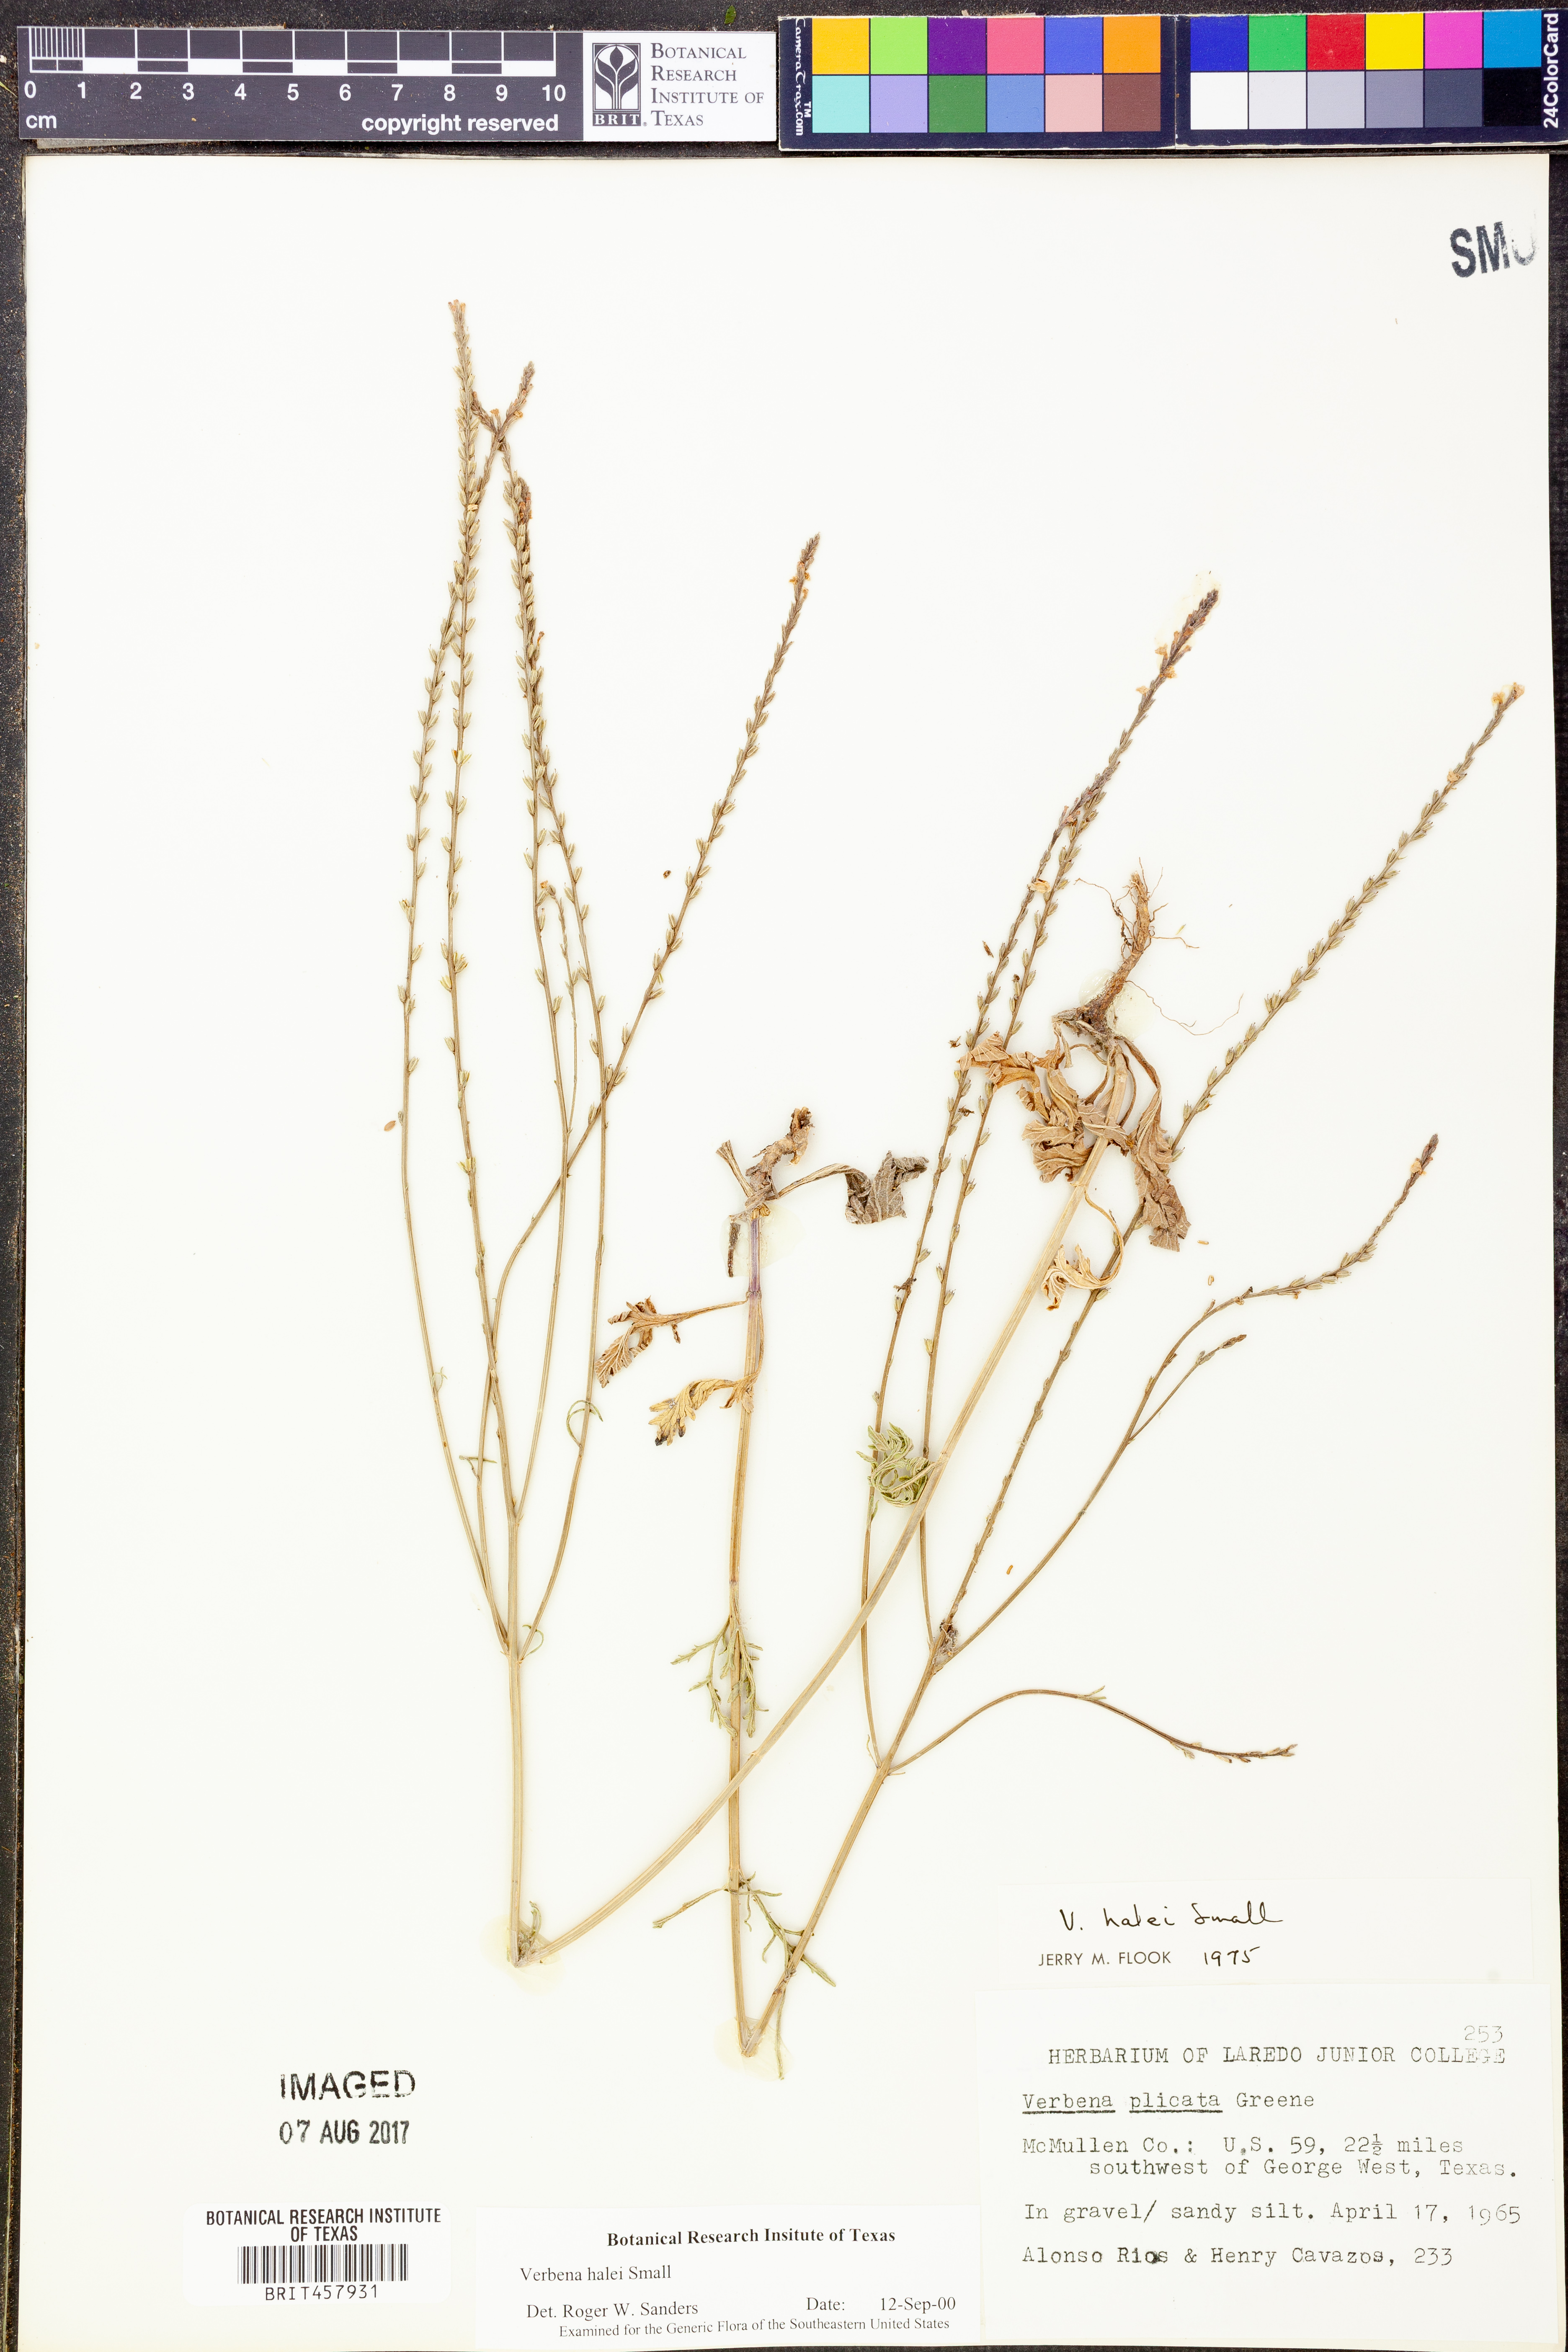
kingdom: Plantae
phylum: Tracheophyta
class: Magnoliopsida
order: Lamiales
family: Verbenaceae
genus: Verbena
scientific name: Verbena halei
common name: Texas vervain
